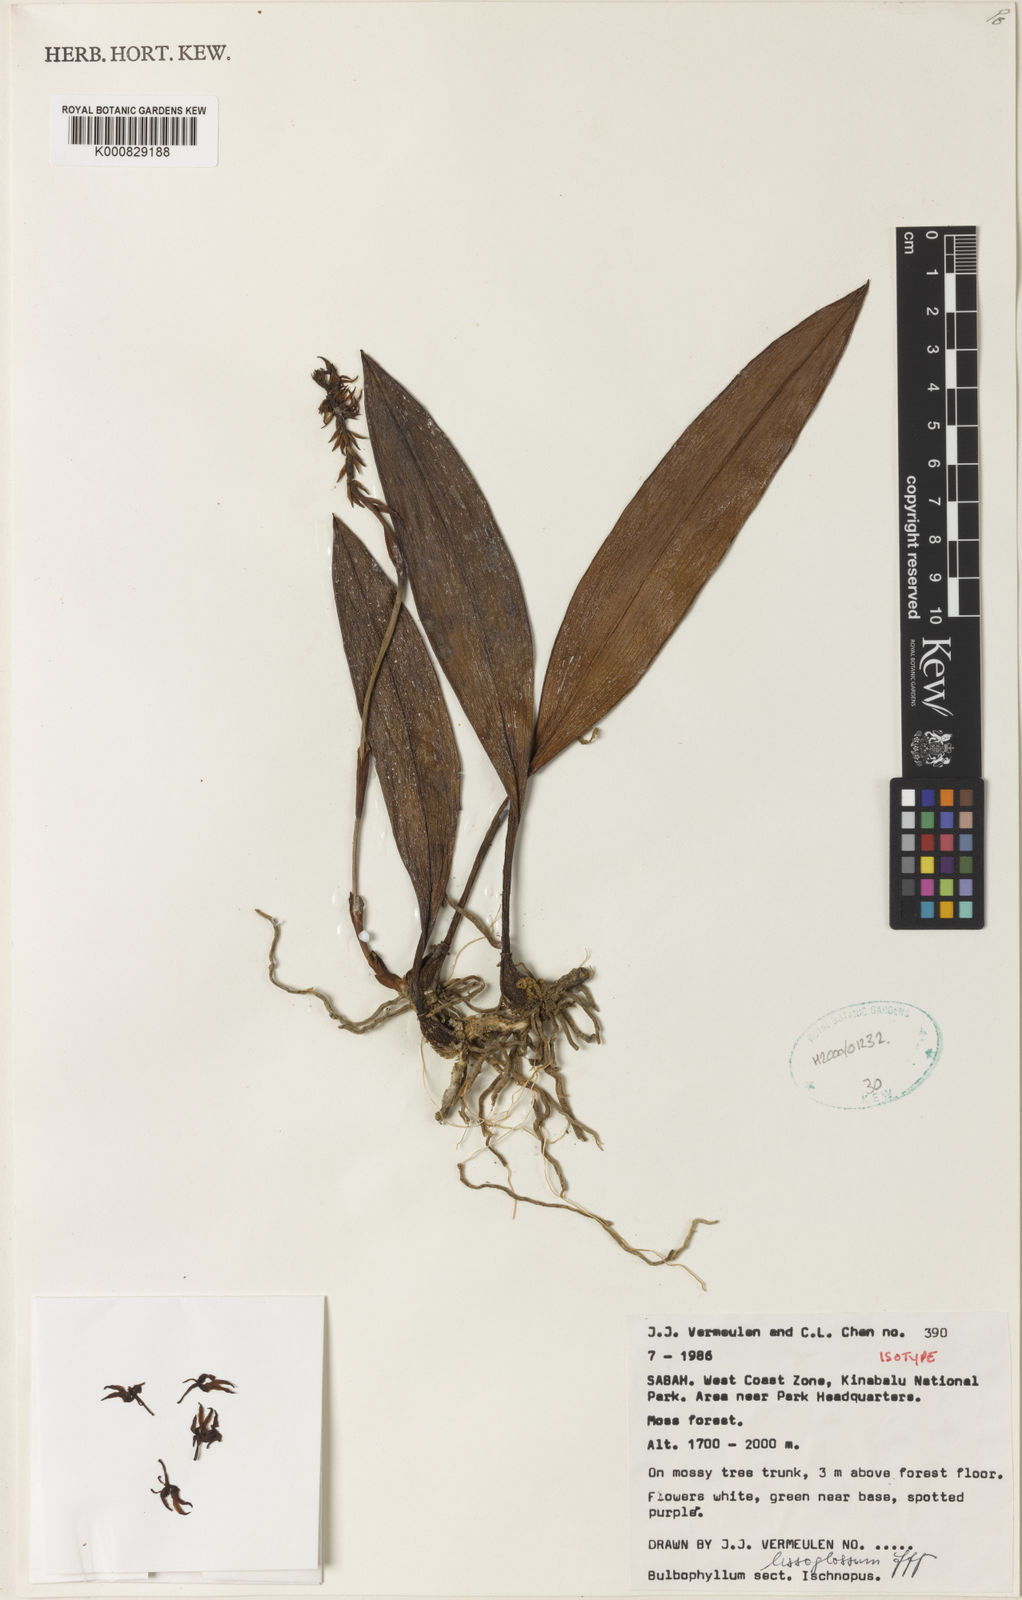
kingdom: Plantae
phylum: Tracheophyta
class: Liliopsida
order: Asparagales
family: Orchidaceae
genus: Bulbophyllum
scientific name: Bulbophyllum lissoglossum
